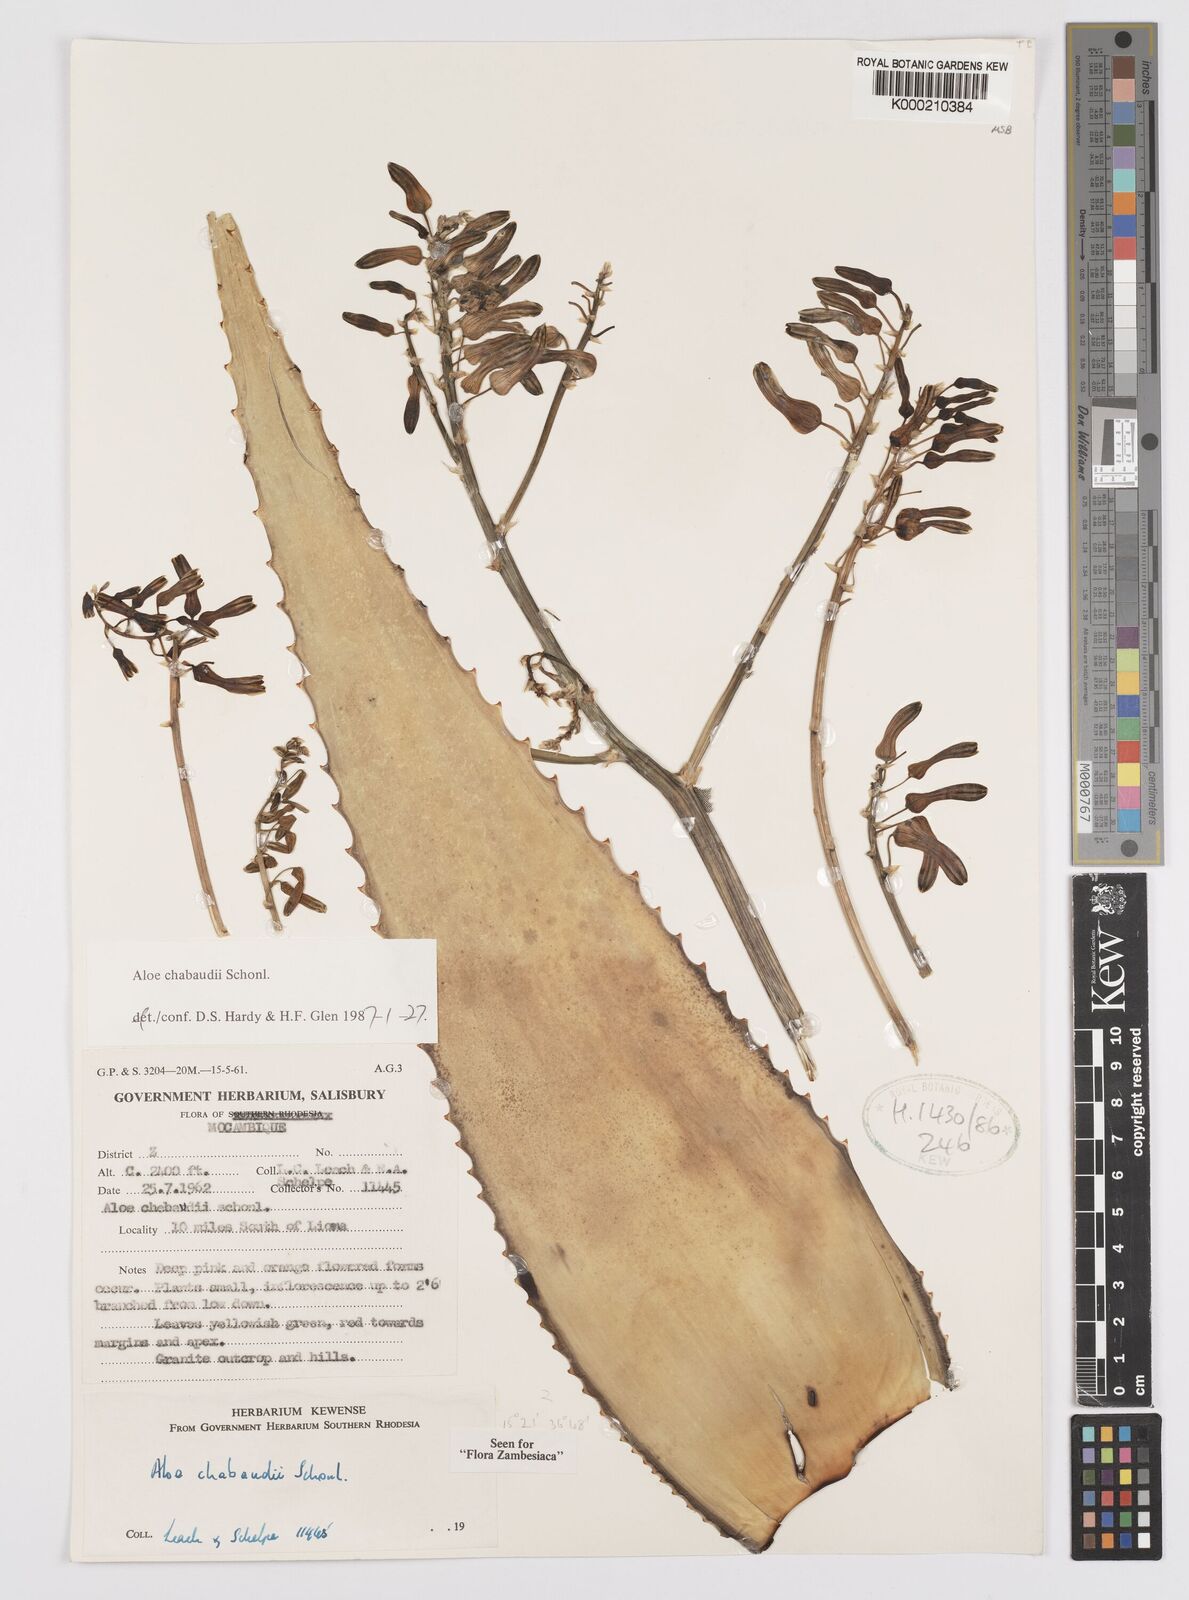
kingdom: Plantae
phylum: Tracheophyta
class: Liliopsida
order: Asparagales
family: Asphodelaceae
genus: Aloe
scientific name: Aloe chabaudii
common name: Chabaud's aloe
